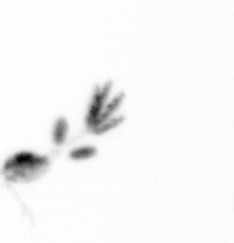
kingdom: Animalia
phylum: Arthropoda
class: Copepoda
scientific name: Copepoda
